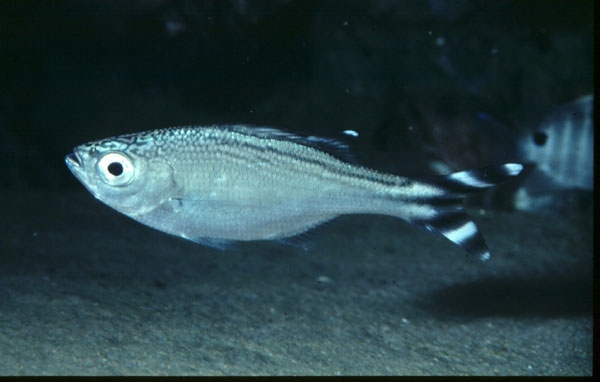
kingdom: Animalia
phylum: Chordata
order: Perciformes
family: Kuhliidae
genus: Kuhlia
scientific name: Kuhlia mugil
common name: Barred flagtail
